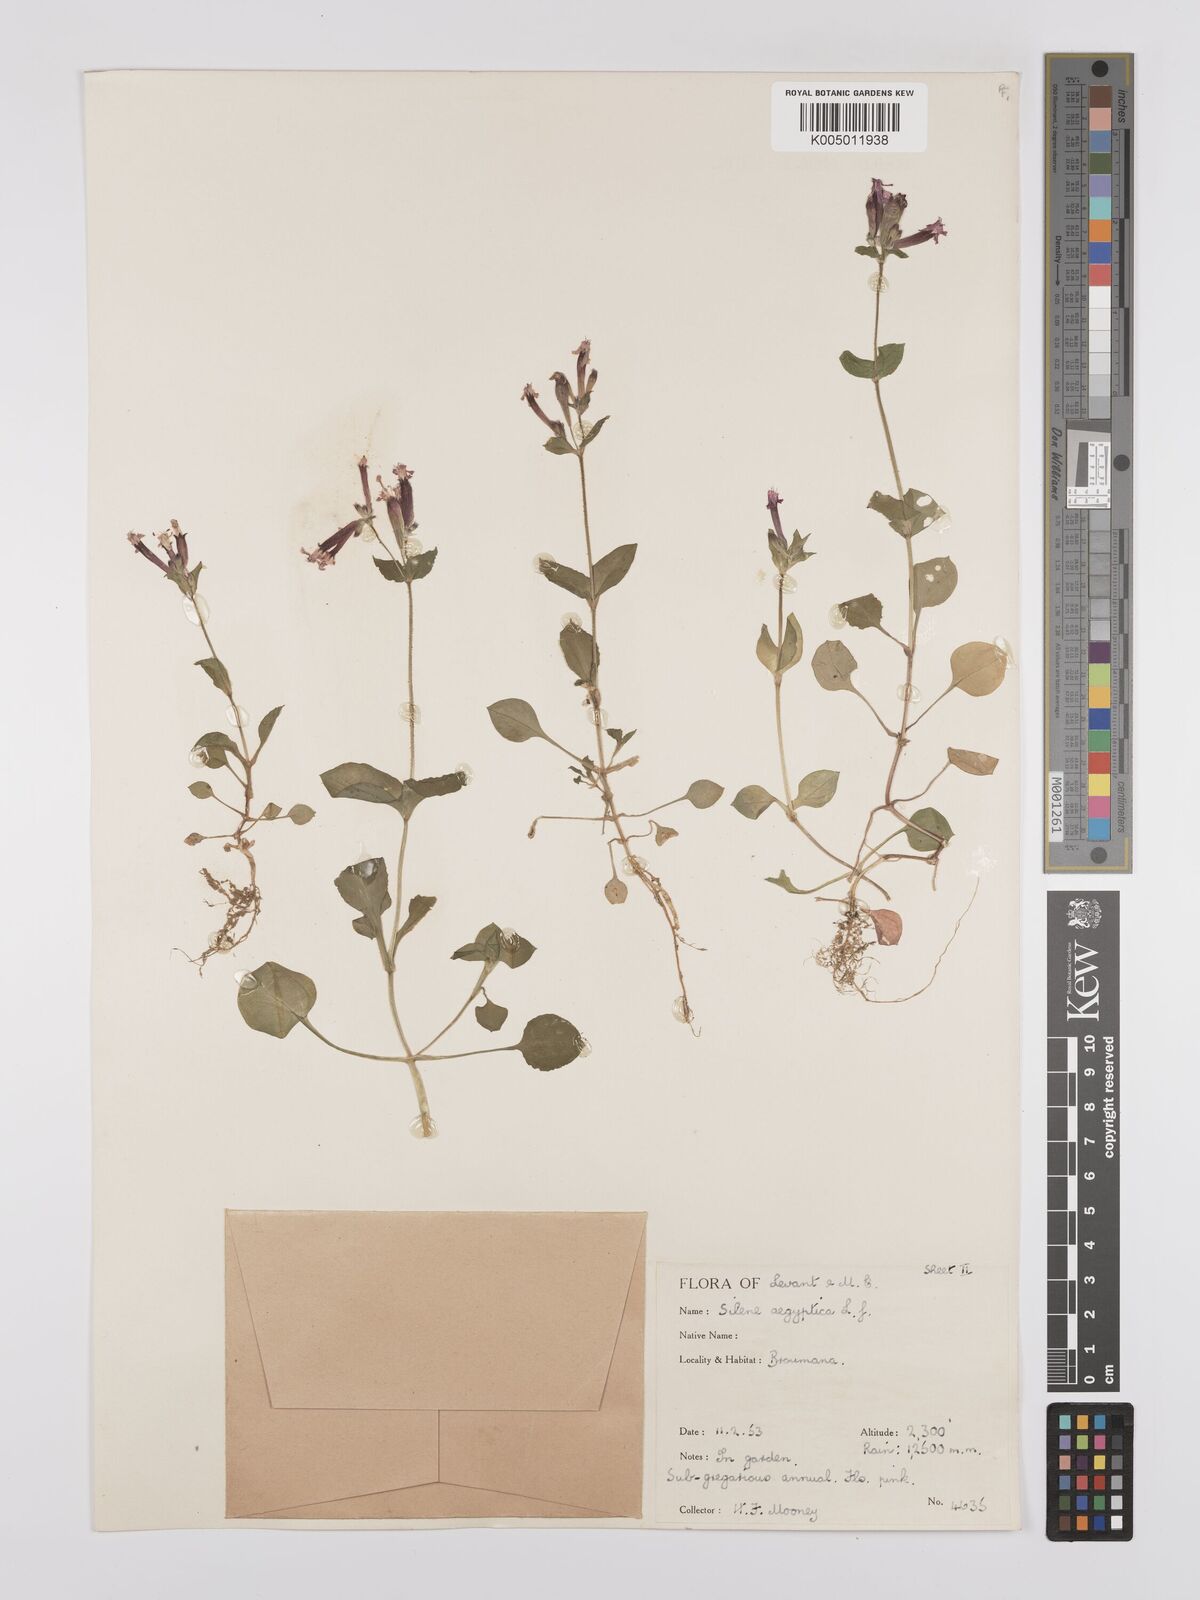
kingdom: Plantae
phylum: Tracheophyta
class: Magnoliopsida
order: Caryophyllales
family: Caryophyllaceae
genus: Silene
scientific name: Silene aegyptiaca
